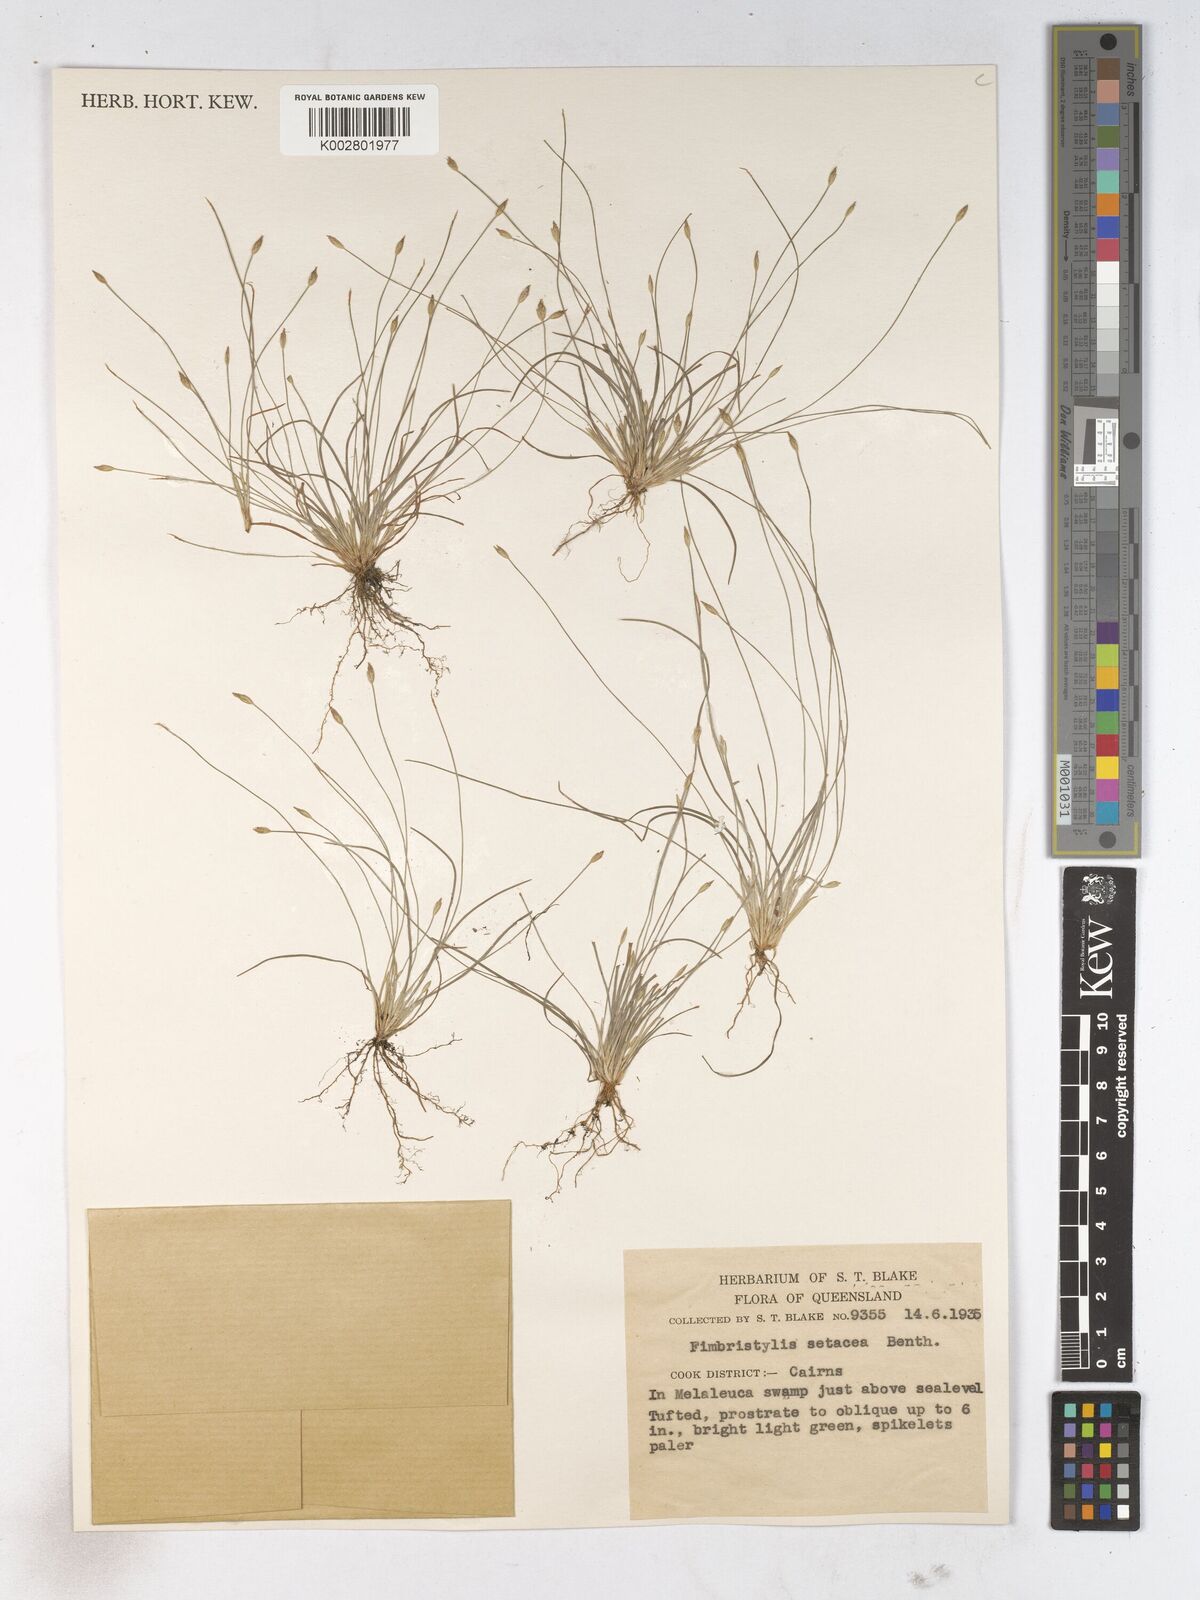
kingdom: Plantae
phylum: Tracheophyta
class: Liliopsida
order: Poales
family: Cyperaceae
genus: Fimbristylis
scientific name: Fimbristylis acicularis
